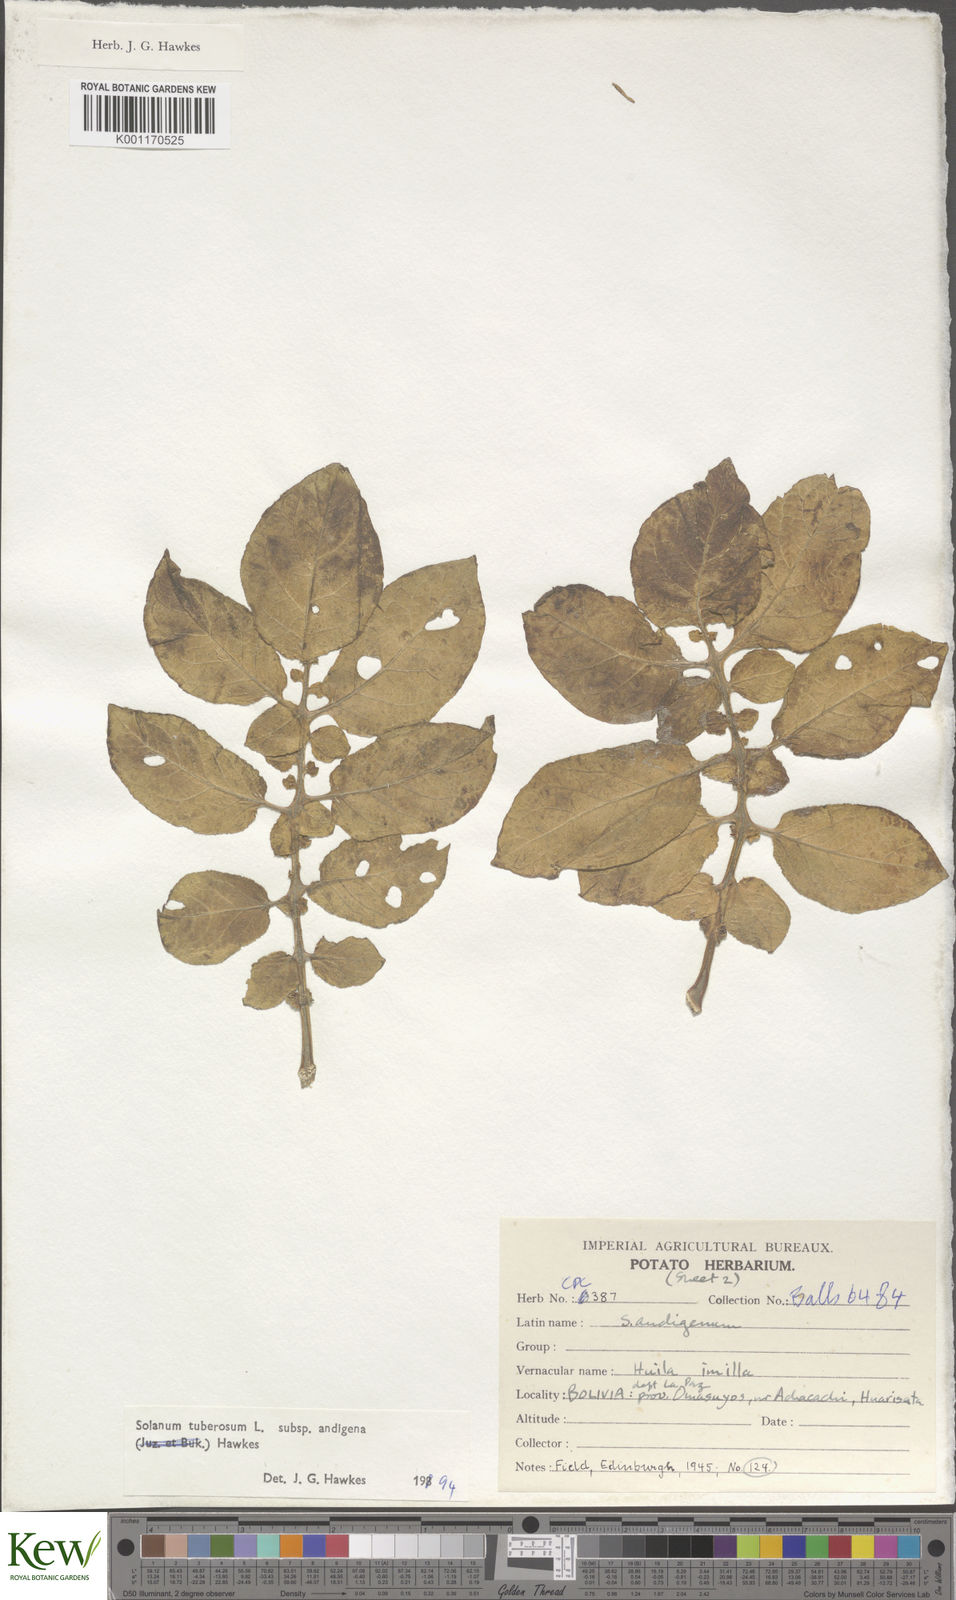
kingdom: Plantae
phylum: Tracheophyta
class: Magnoliopsida
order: Solanales
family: Solanaceae
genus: Solanum
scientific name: Solanum tuberosum
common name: Potato
